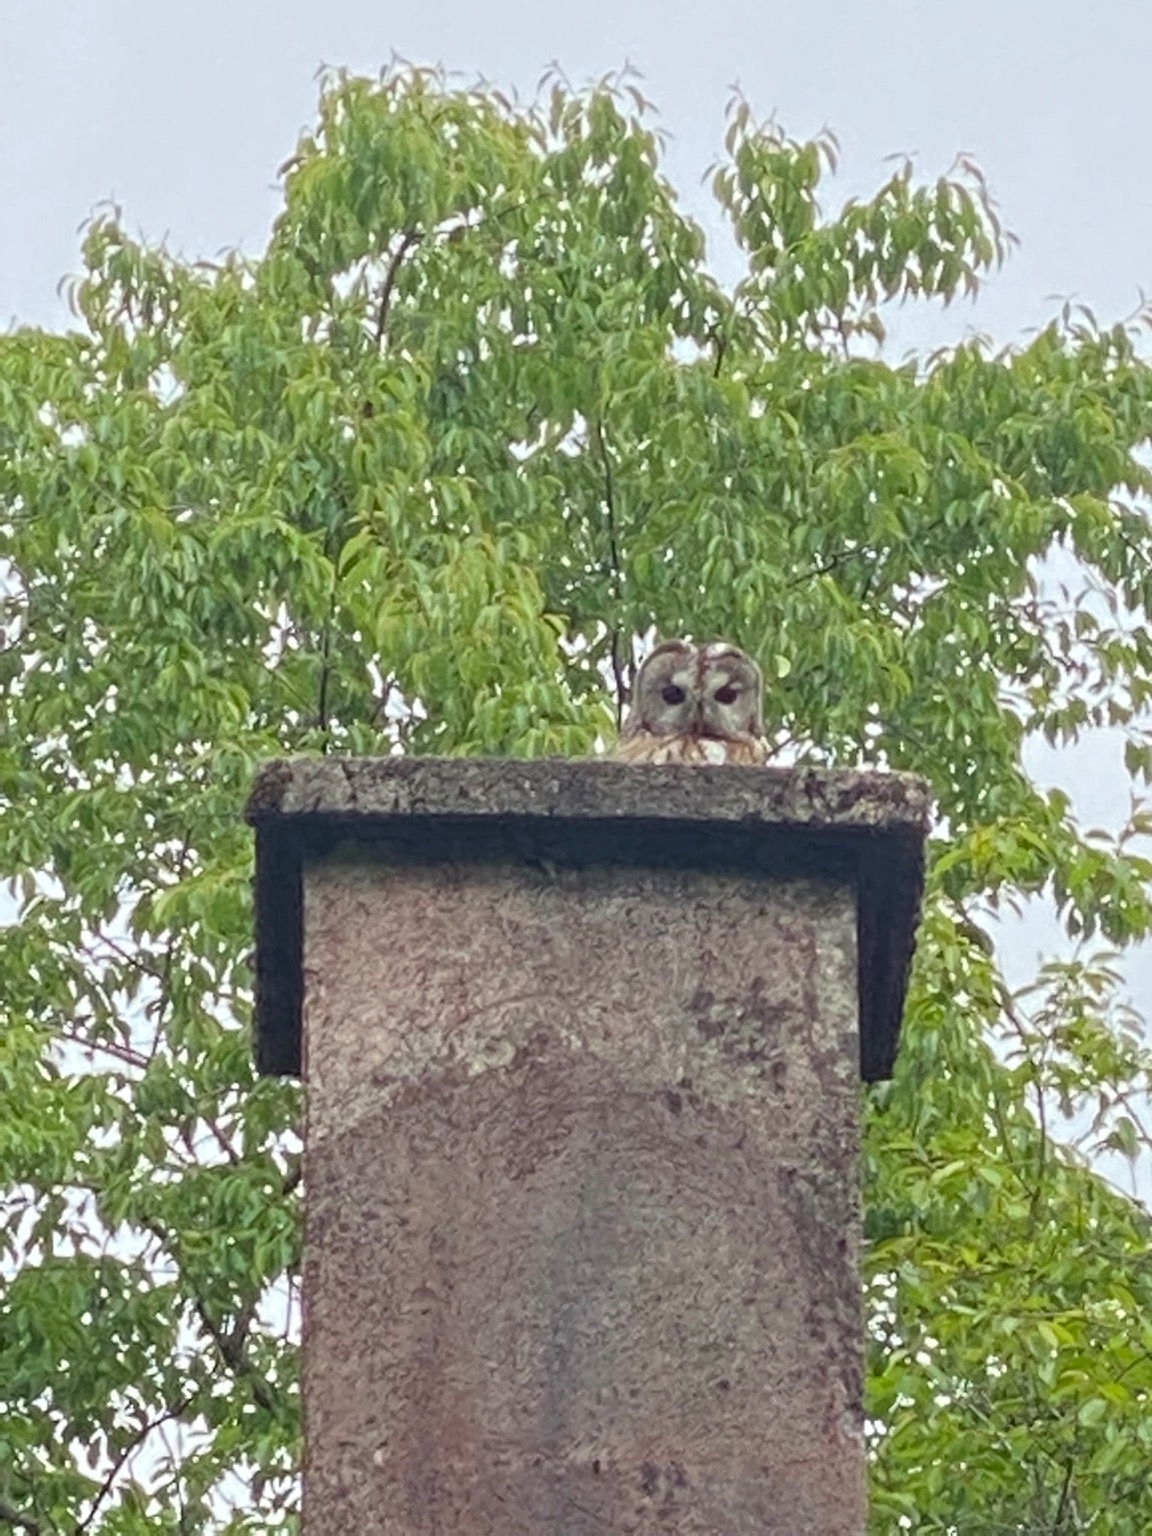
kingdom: Animalia
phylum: Chordata
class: Aves
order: Strigiformes
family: Strigidae
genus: Strix
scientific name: Strix aluco
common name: Natugle
